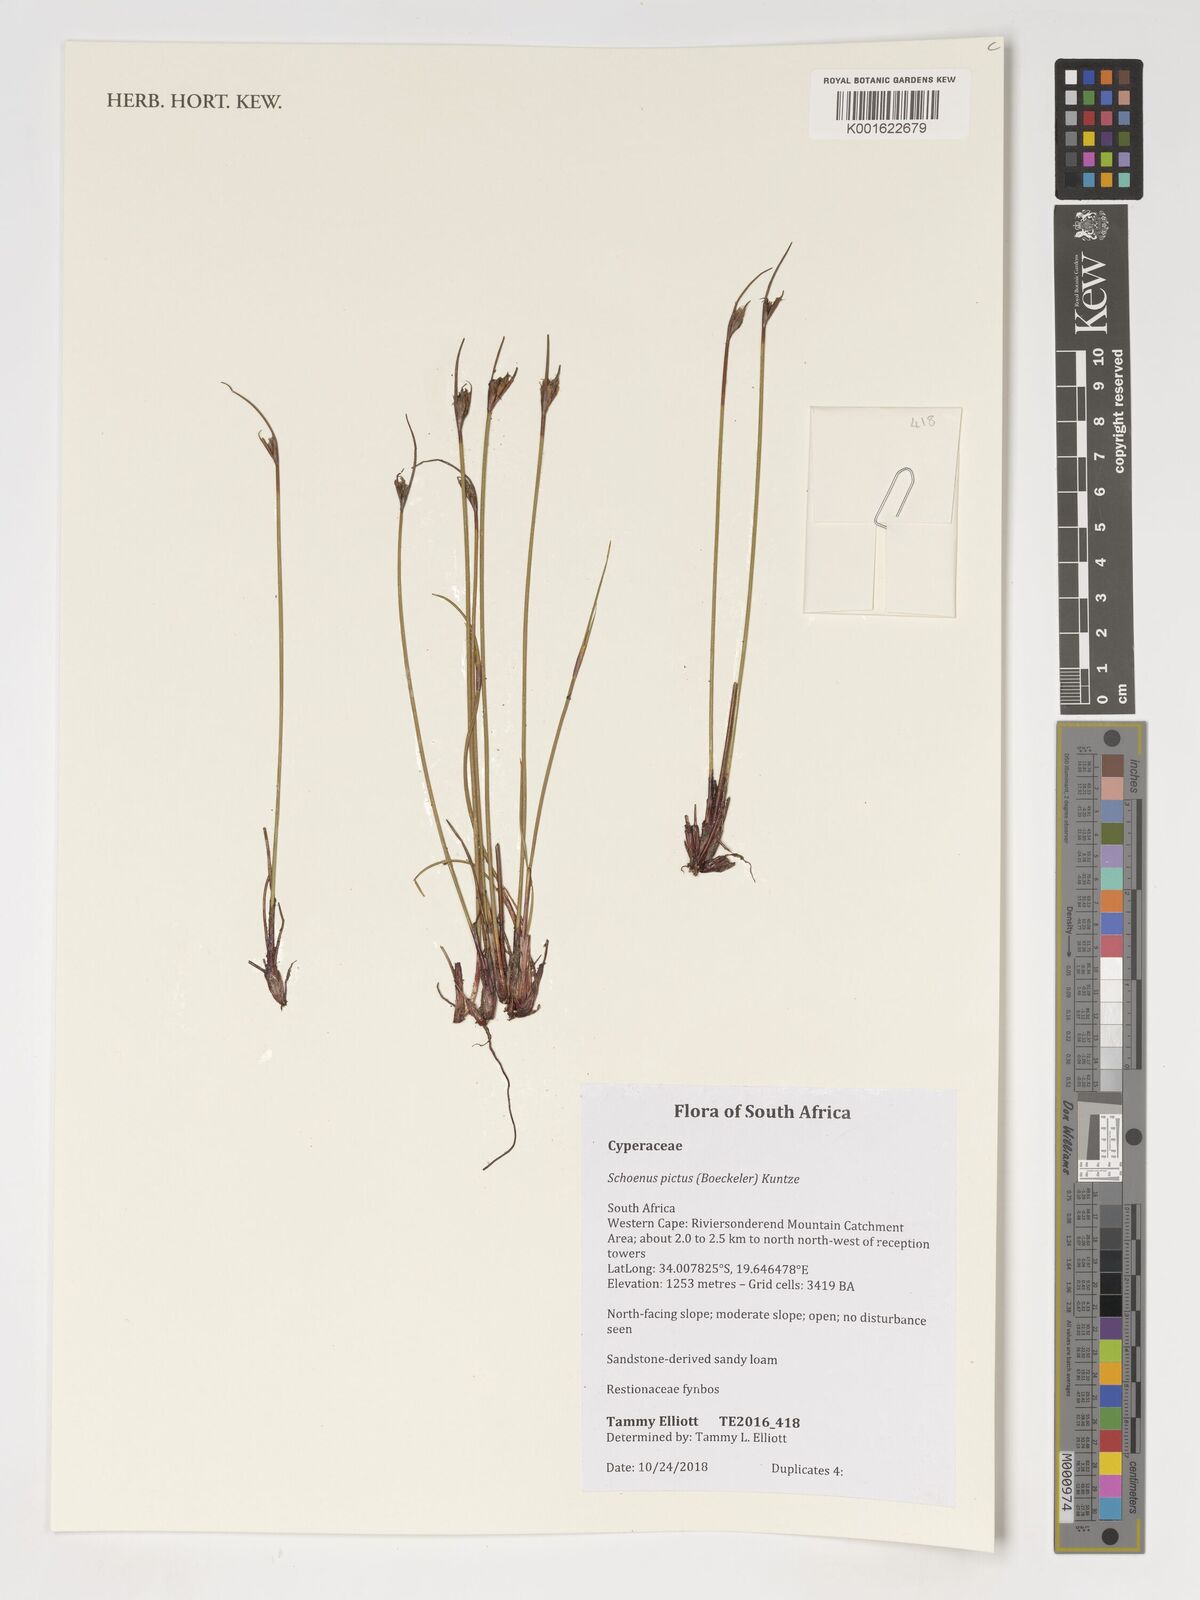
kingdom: Plantae
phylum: Tracheophyta
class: Liliopsida
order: Poales
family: Cyperaceae
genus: Schoenus
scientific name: Schoenus pictus
